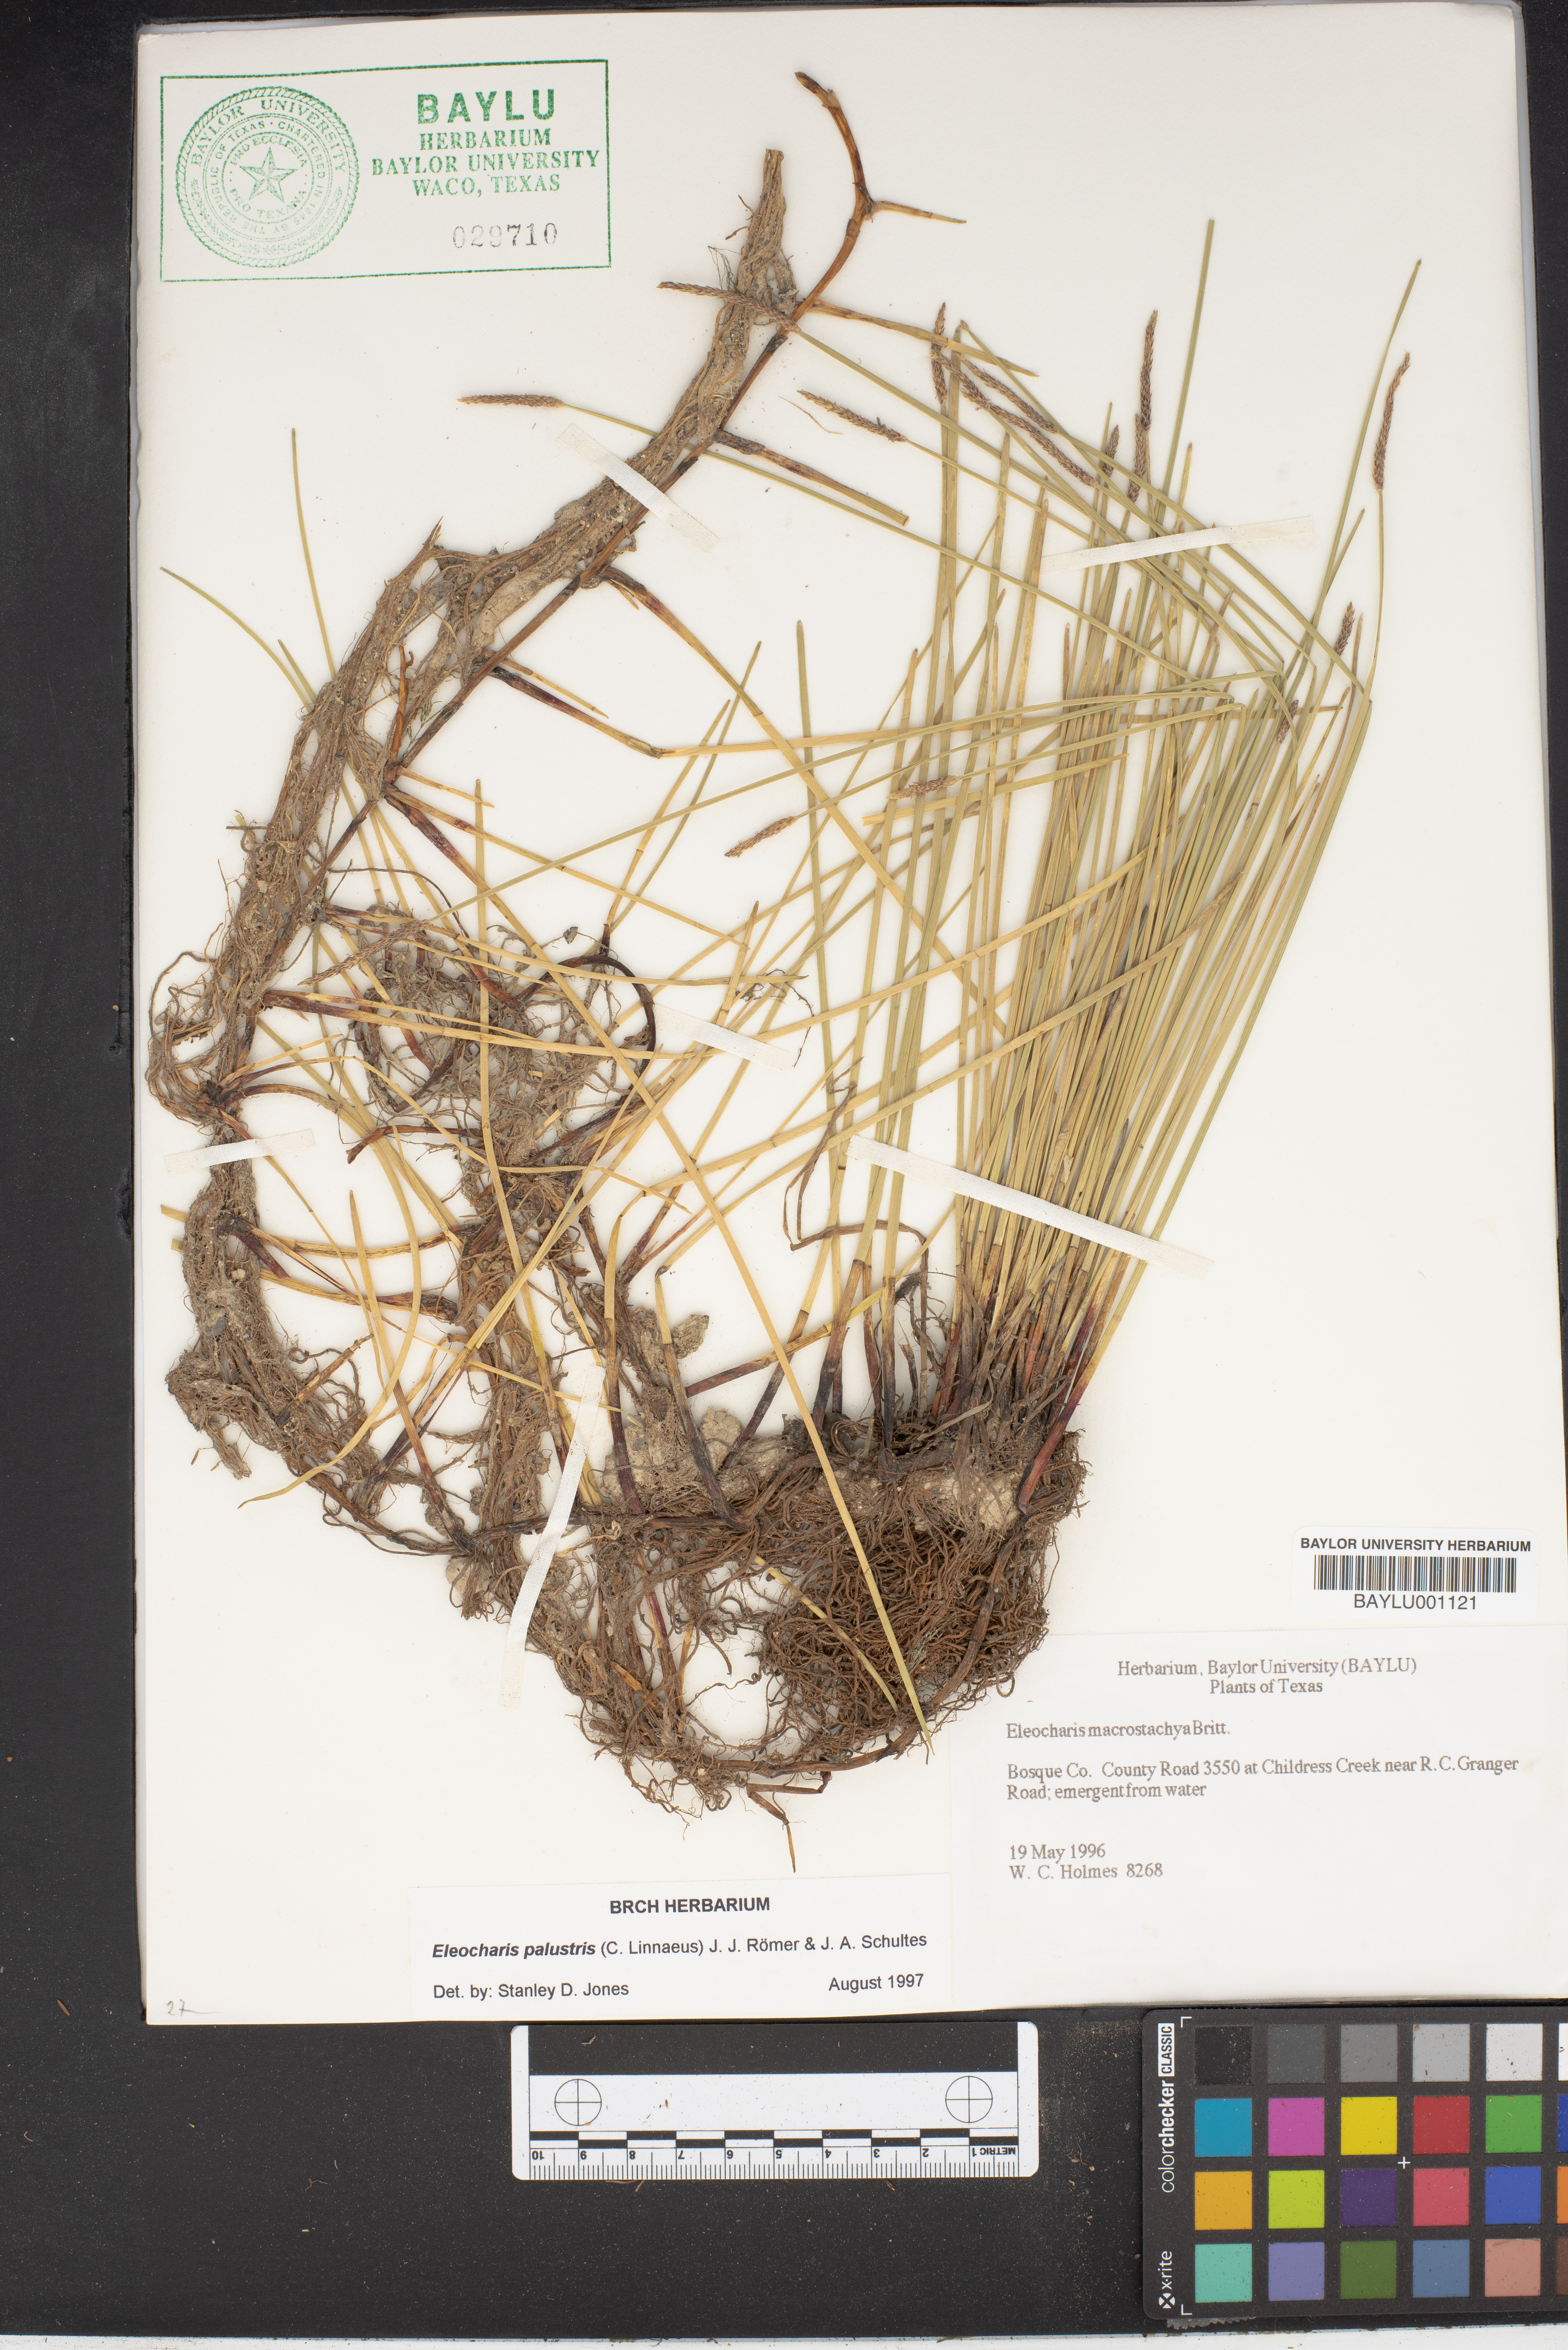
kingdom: Plantae
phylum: Tracheophyta
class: Liliopsida
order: Poales
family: Cyperaceae
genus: Eleocharis
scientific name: Eleocharis macrostachya
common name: Pale spikerush
